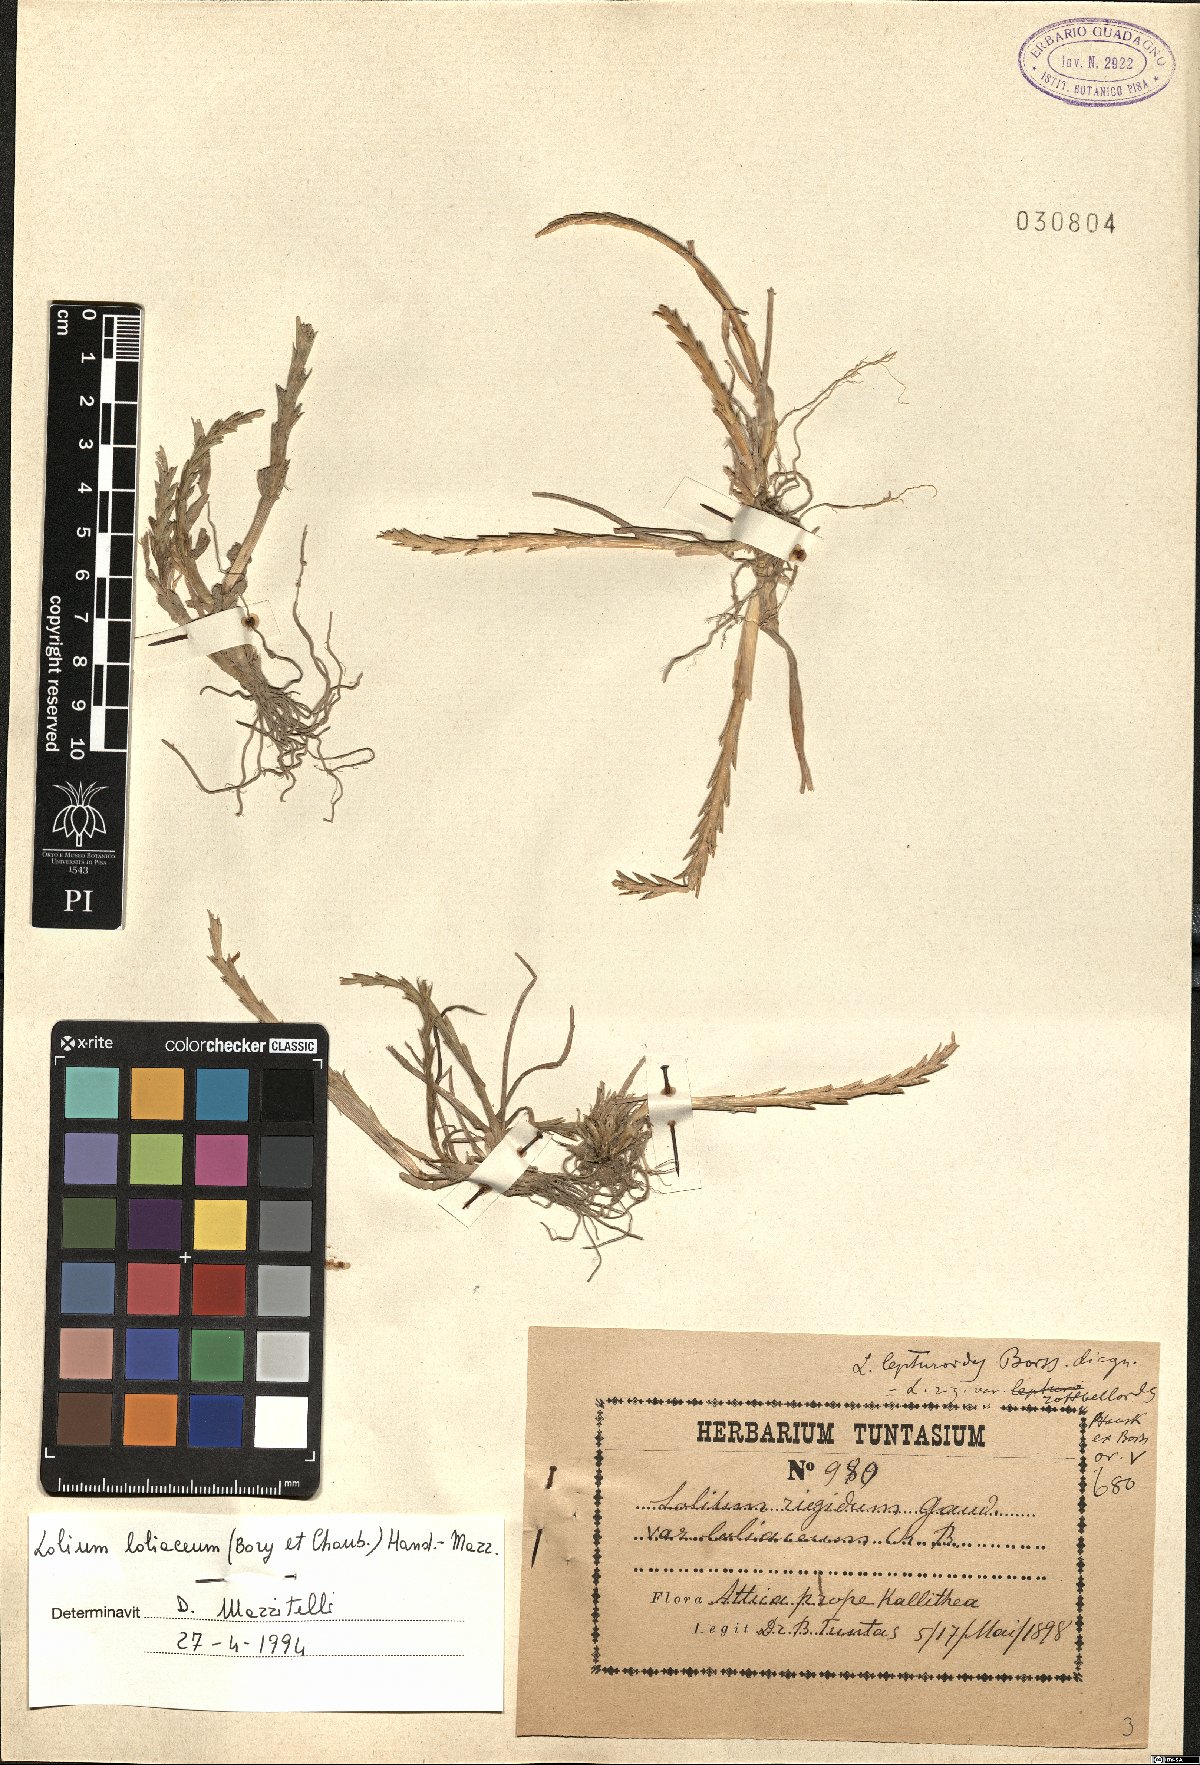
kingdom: Plantae
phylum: Tracheophyta
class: Liliopsida
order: Poales
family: Poaceae
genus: Lolium
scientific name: Lolium rigidum
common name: Wimmera ryegrass
